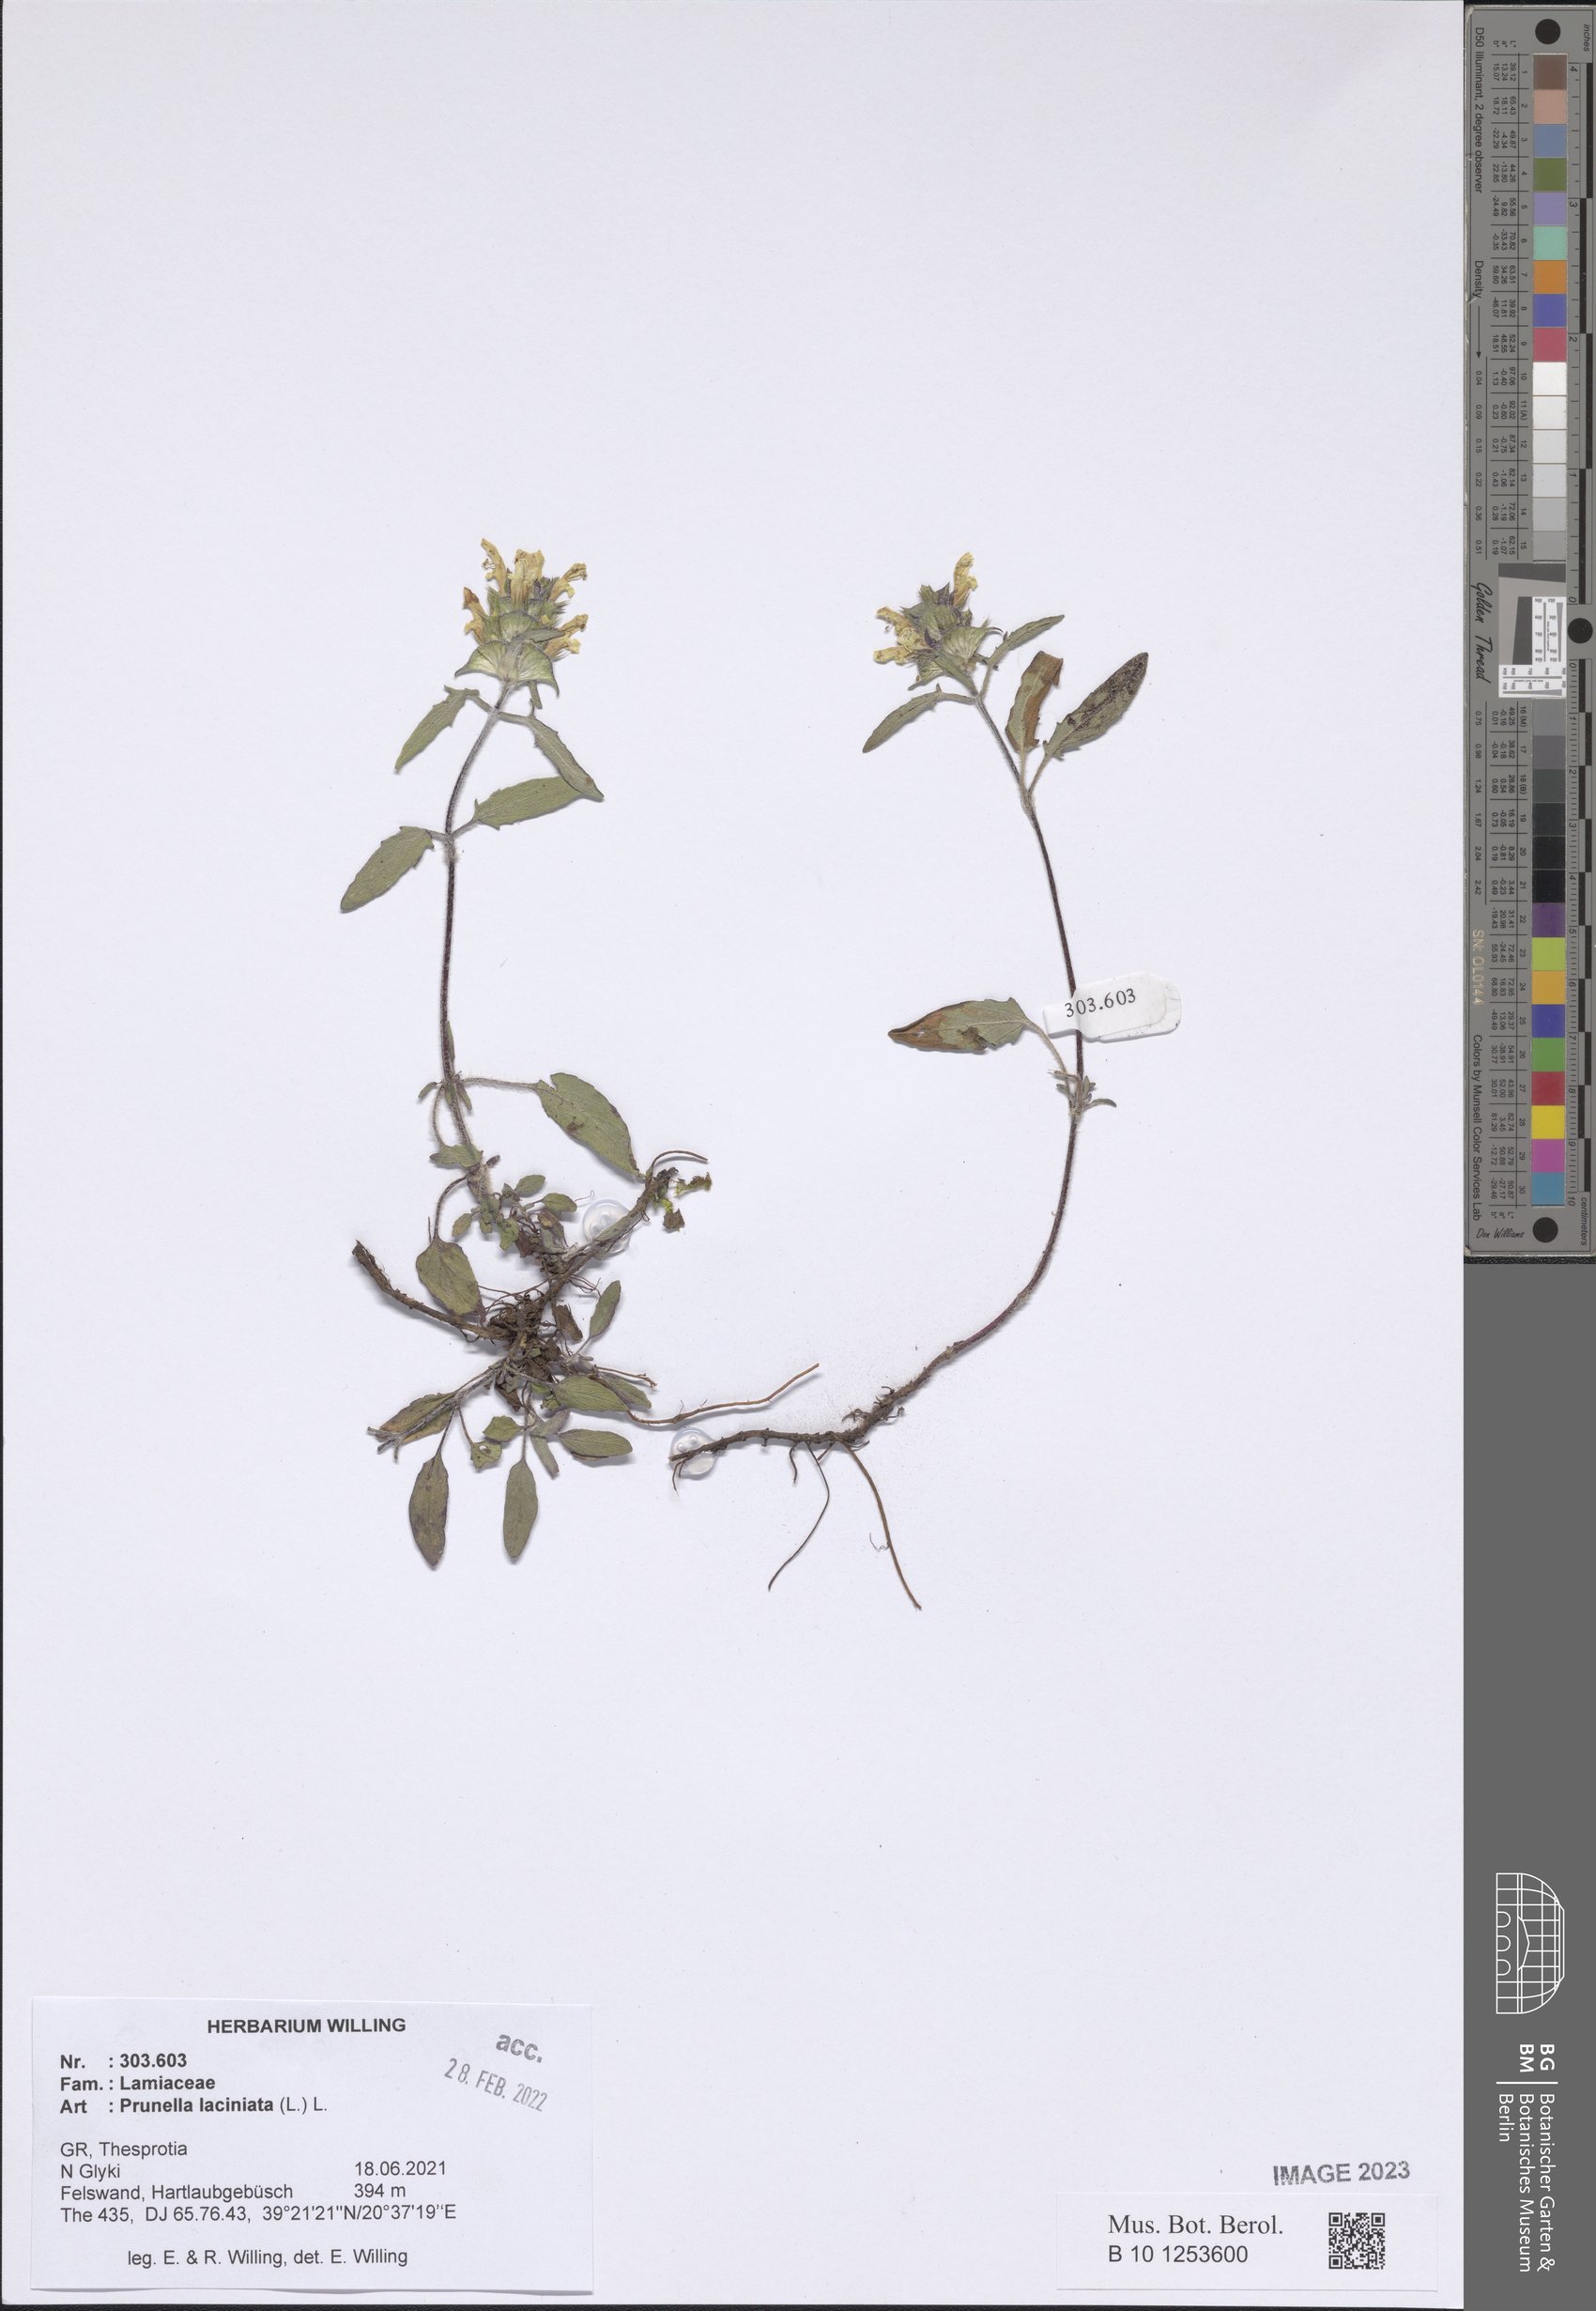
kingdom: Plantae
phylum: Tracheophyta
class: Magnoliopsida
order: Lamiales
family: Lamiaceae
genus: Prunella
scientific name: Prunella laciniata
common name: Cut-leaved selfheal
